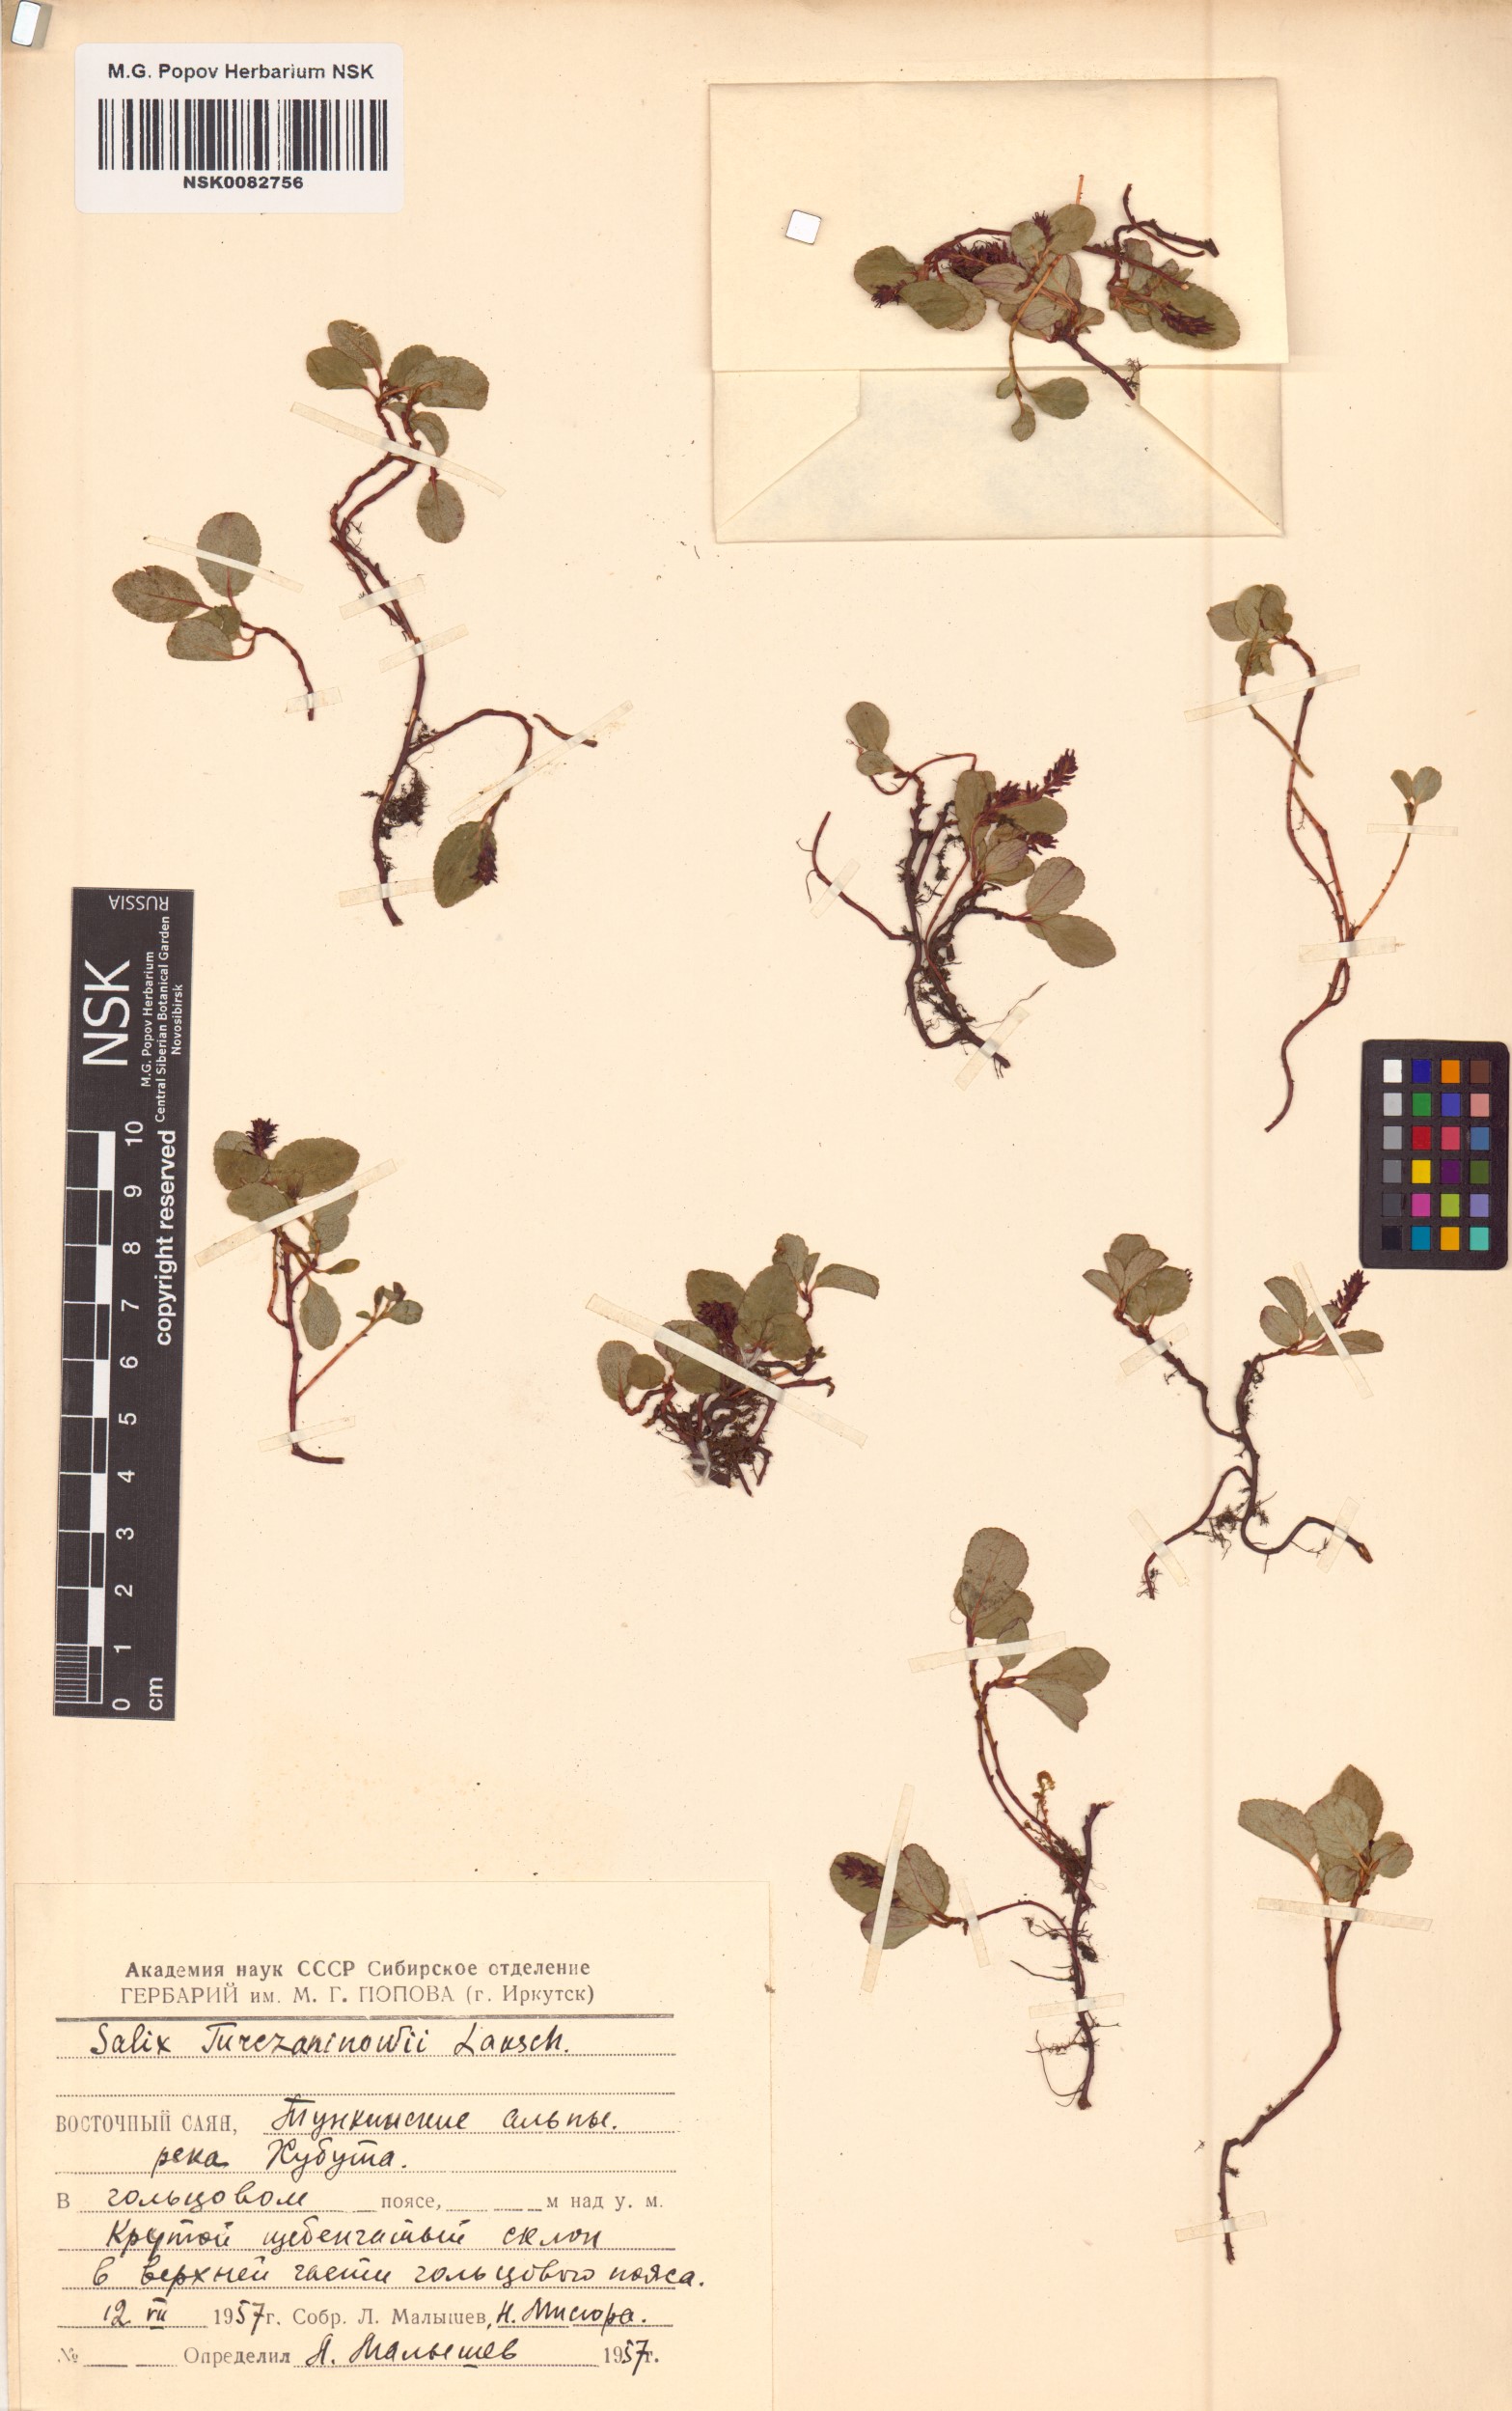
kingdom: Plantae
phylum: Tracheophyta
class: Magnoliopsida
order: Malpighiales
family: Salicaceae
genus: Salix
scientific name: Salix turczaninowii
